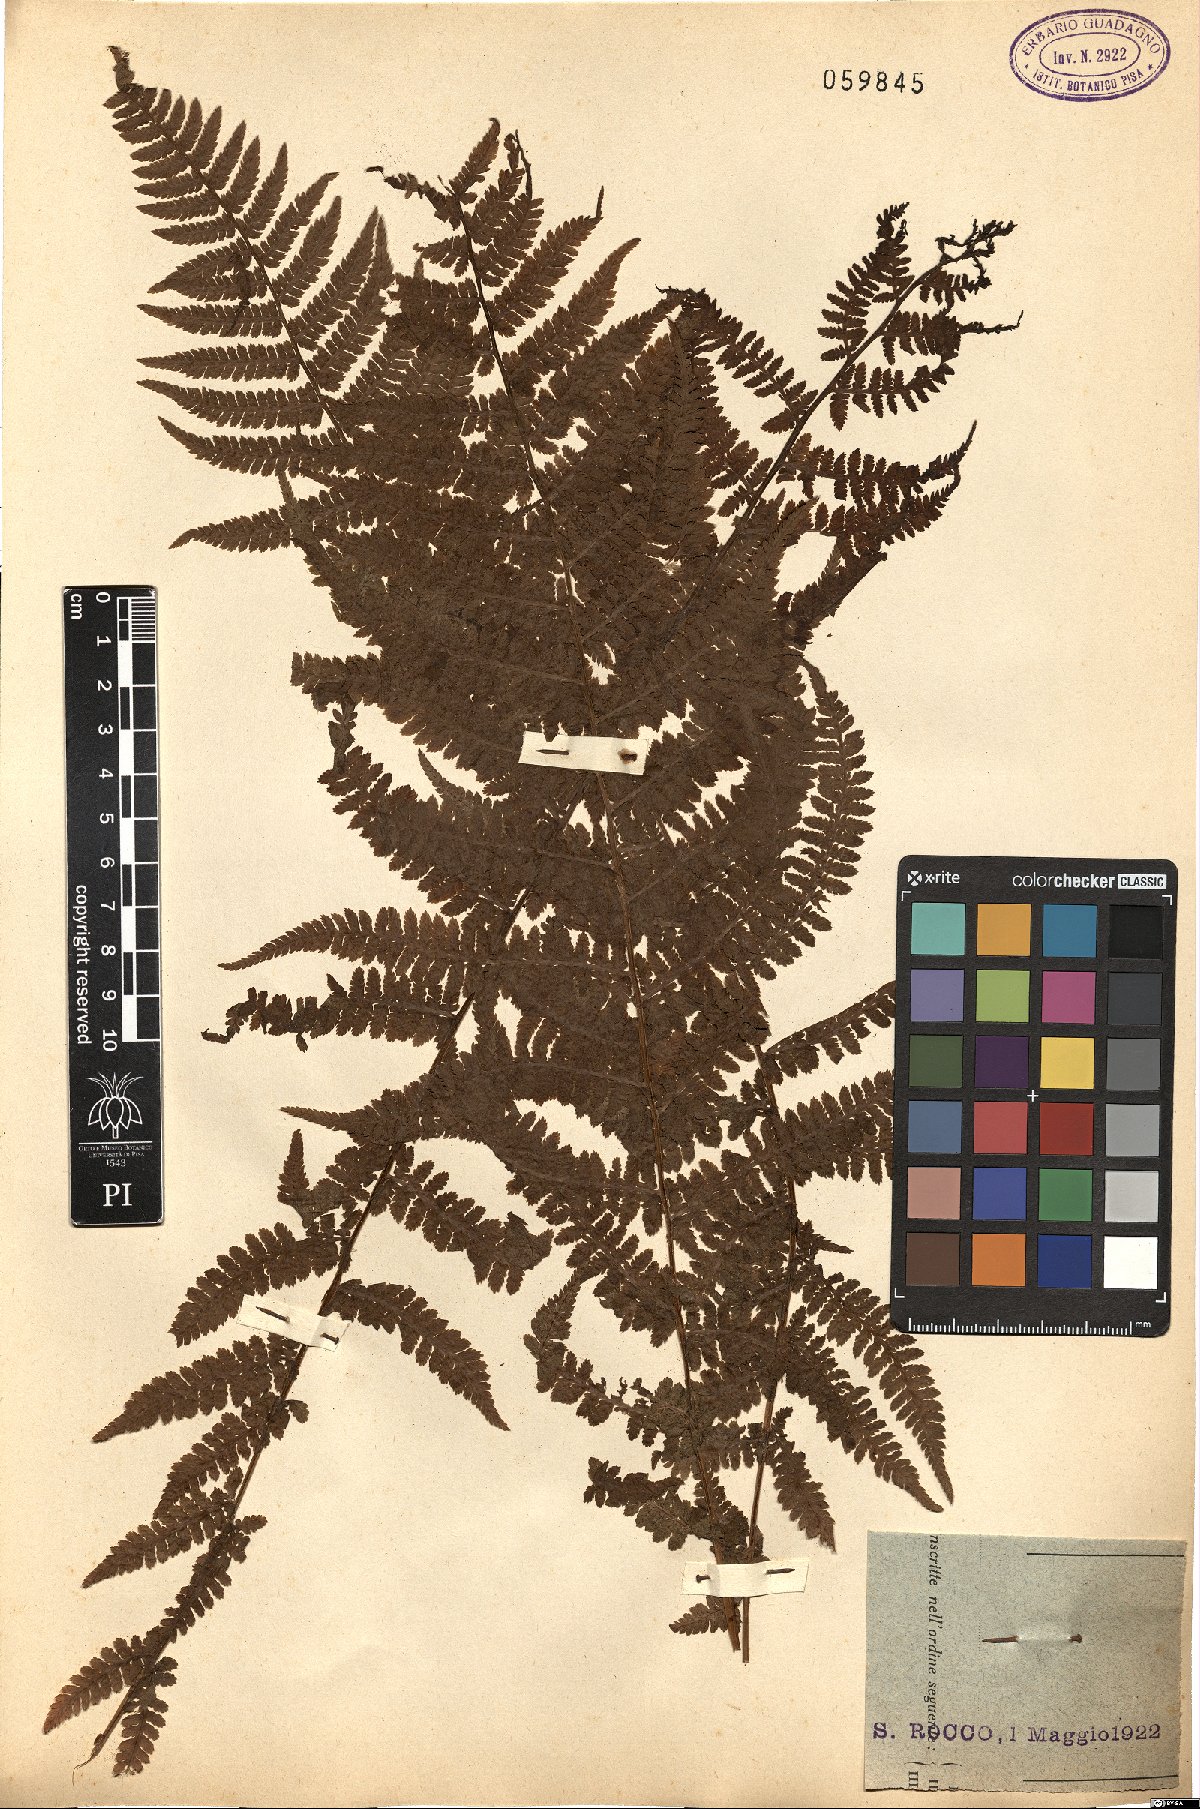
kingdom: Plantae
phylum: Tracheophyta
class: Polypodiopsida
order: Polypodiales
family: Dryopteridaceae
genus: Dryopteris
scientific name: Dryopteris
